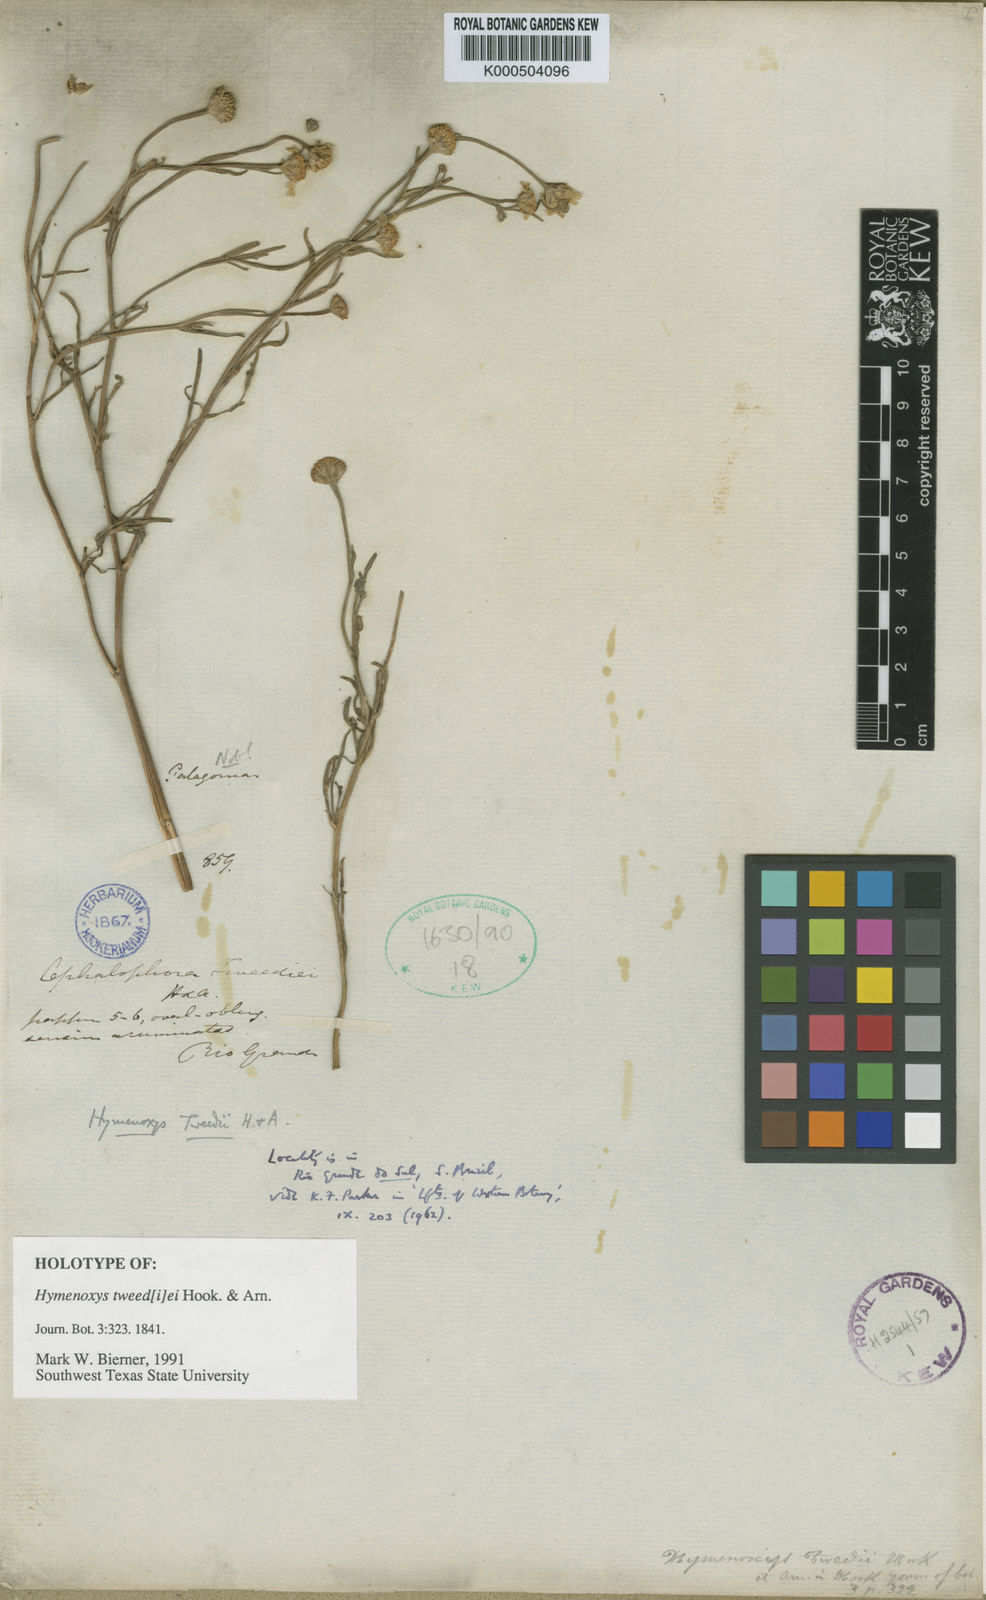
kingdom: Plantae
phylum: Tracheophyta
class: Magnoliopsida
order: Asterales
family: Asteraceae
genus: Hymenoxys
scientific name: Hymenoxys megapotamica
